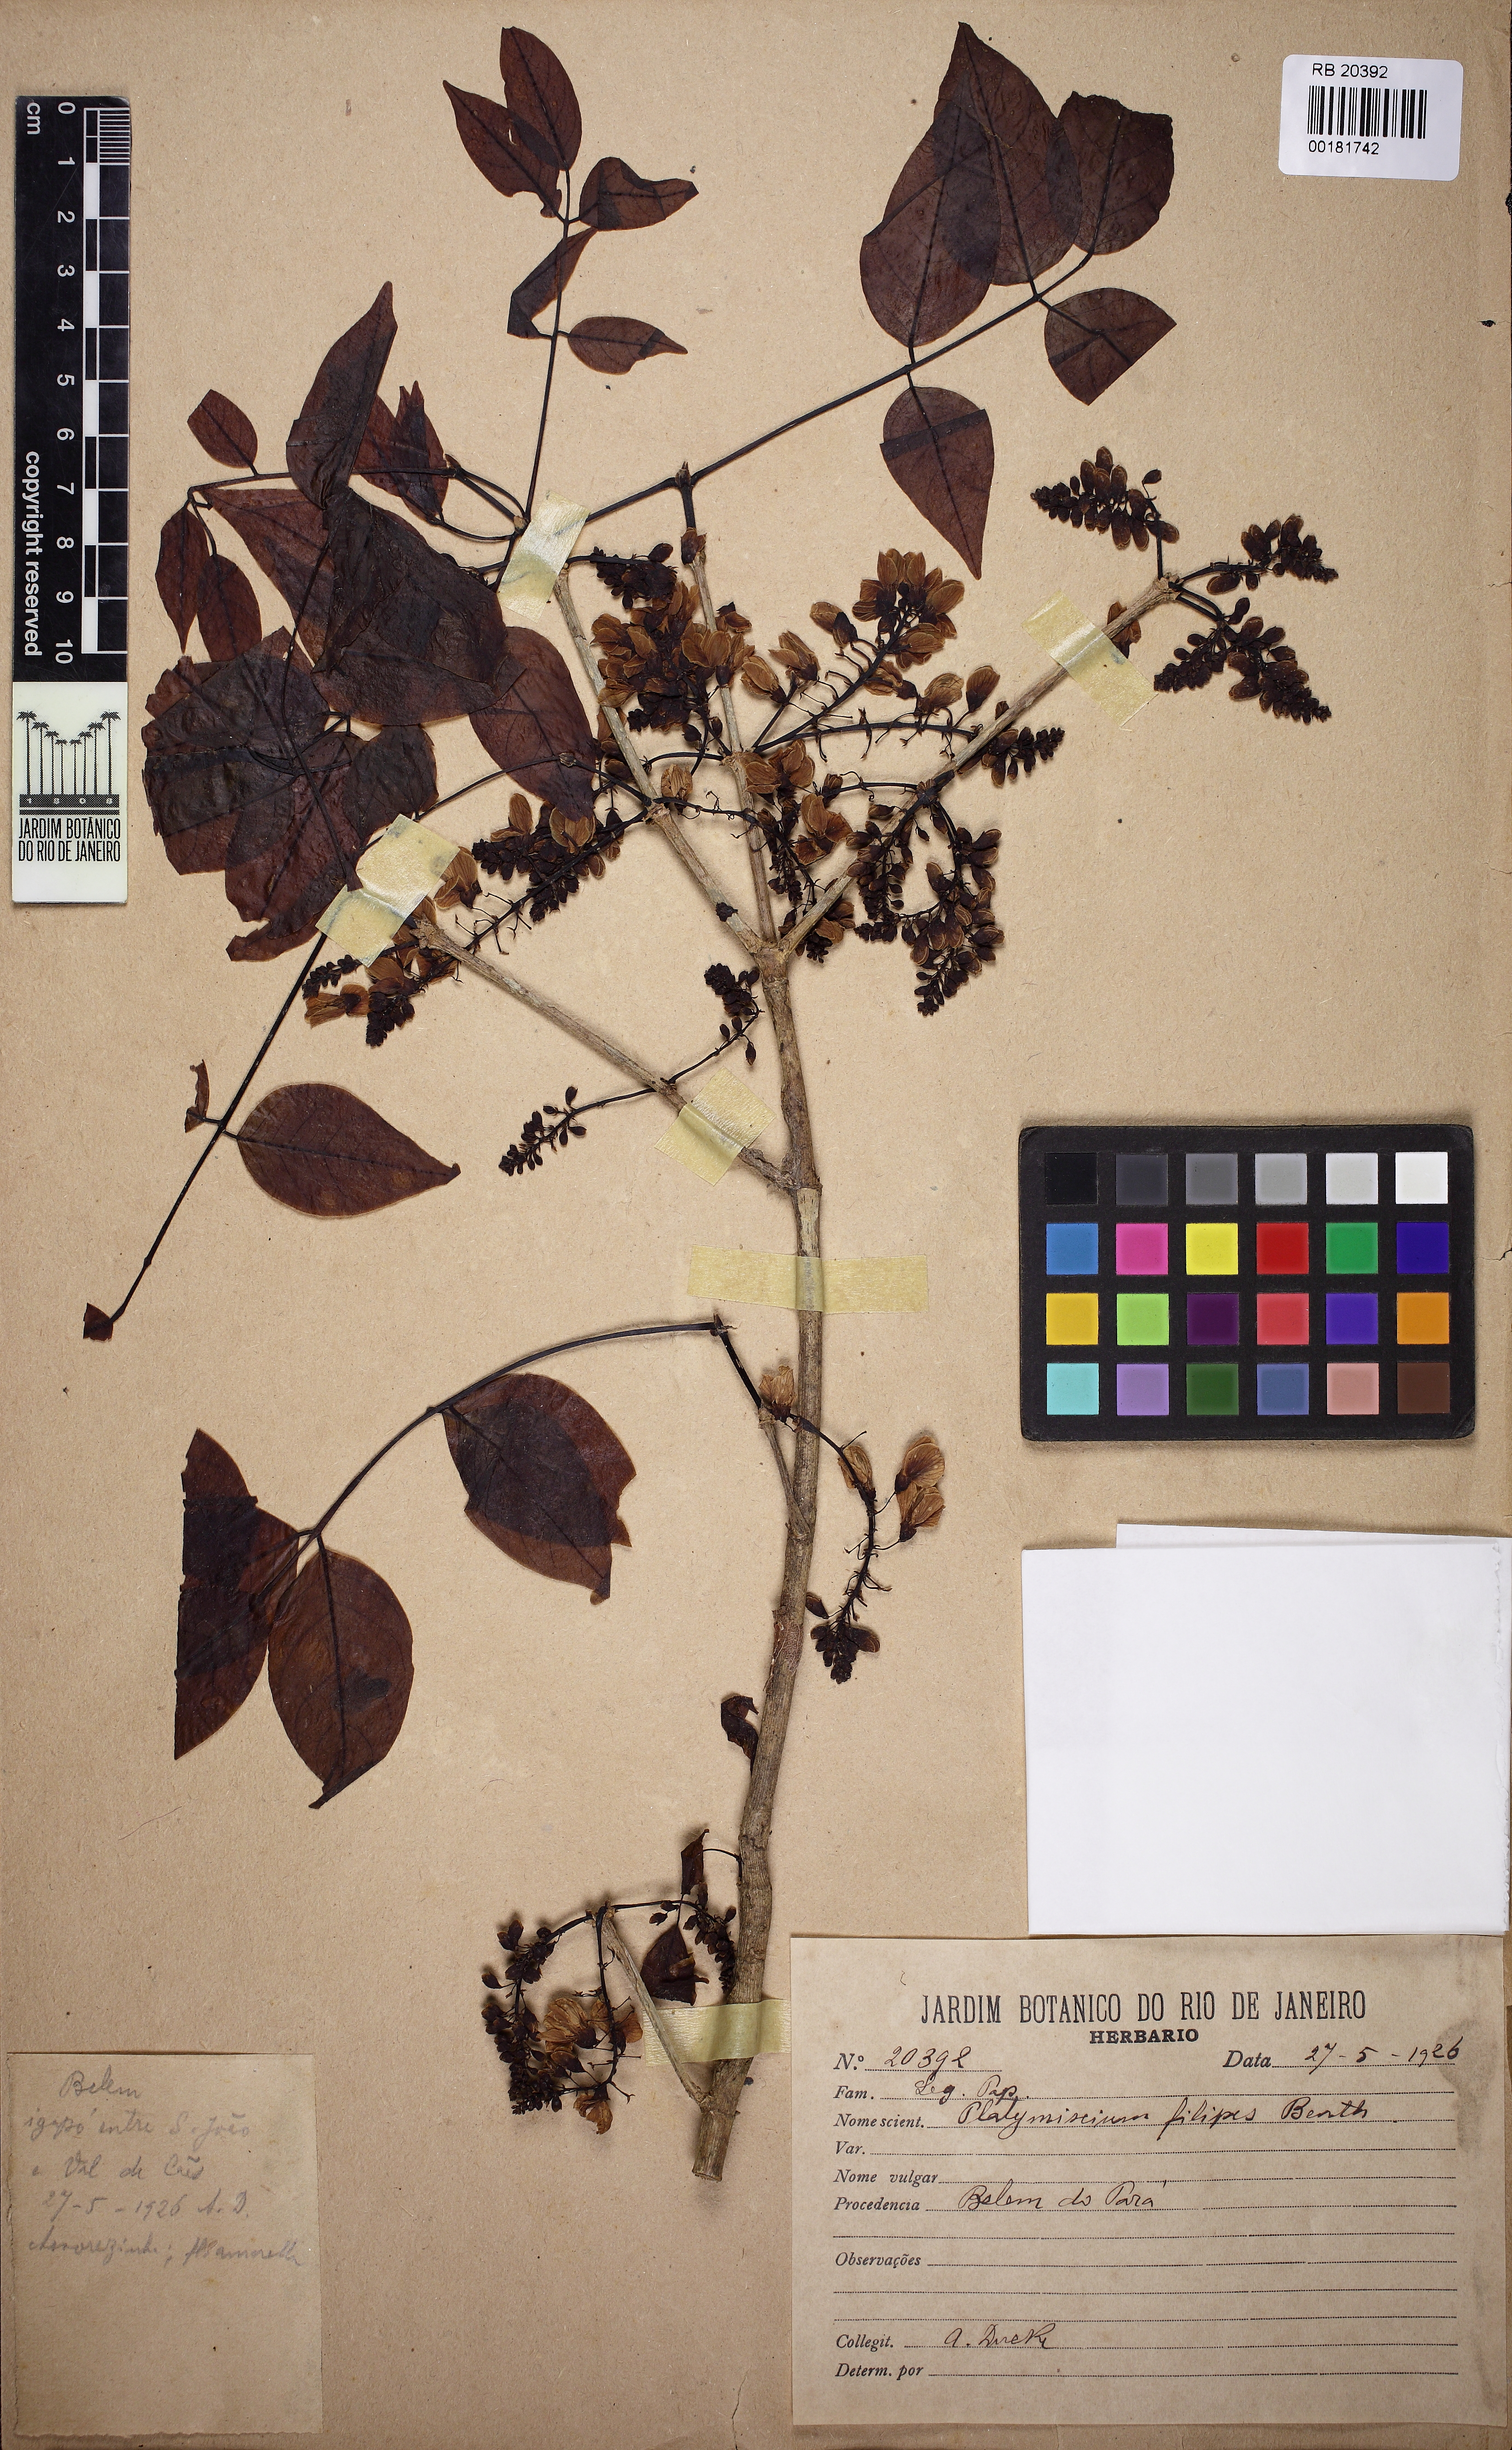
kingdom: Plantae
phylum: Tracheophyta
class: Magnoliopsida
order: Fabales
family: Fabaceae
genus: Platymiscium
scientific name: Platymiscium filipes
